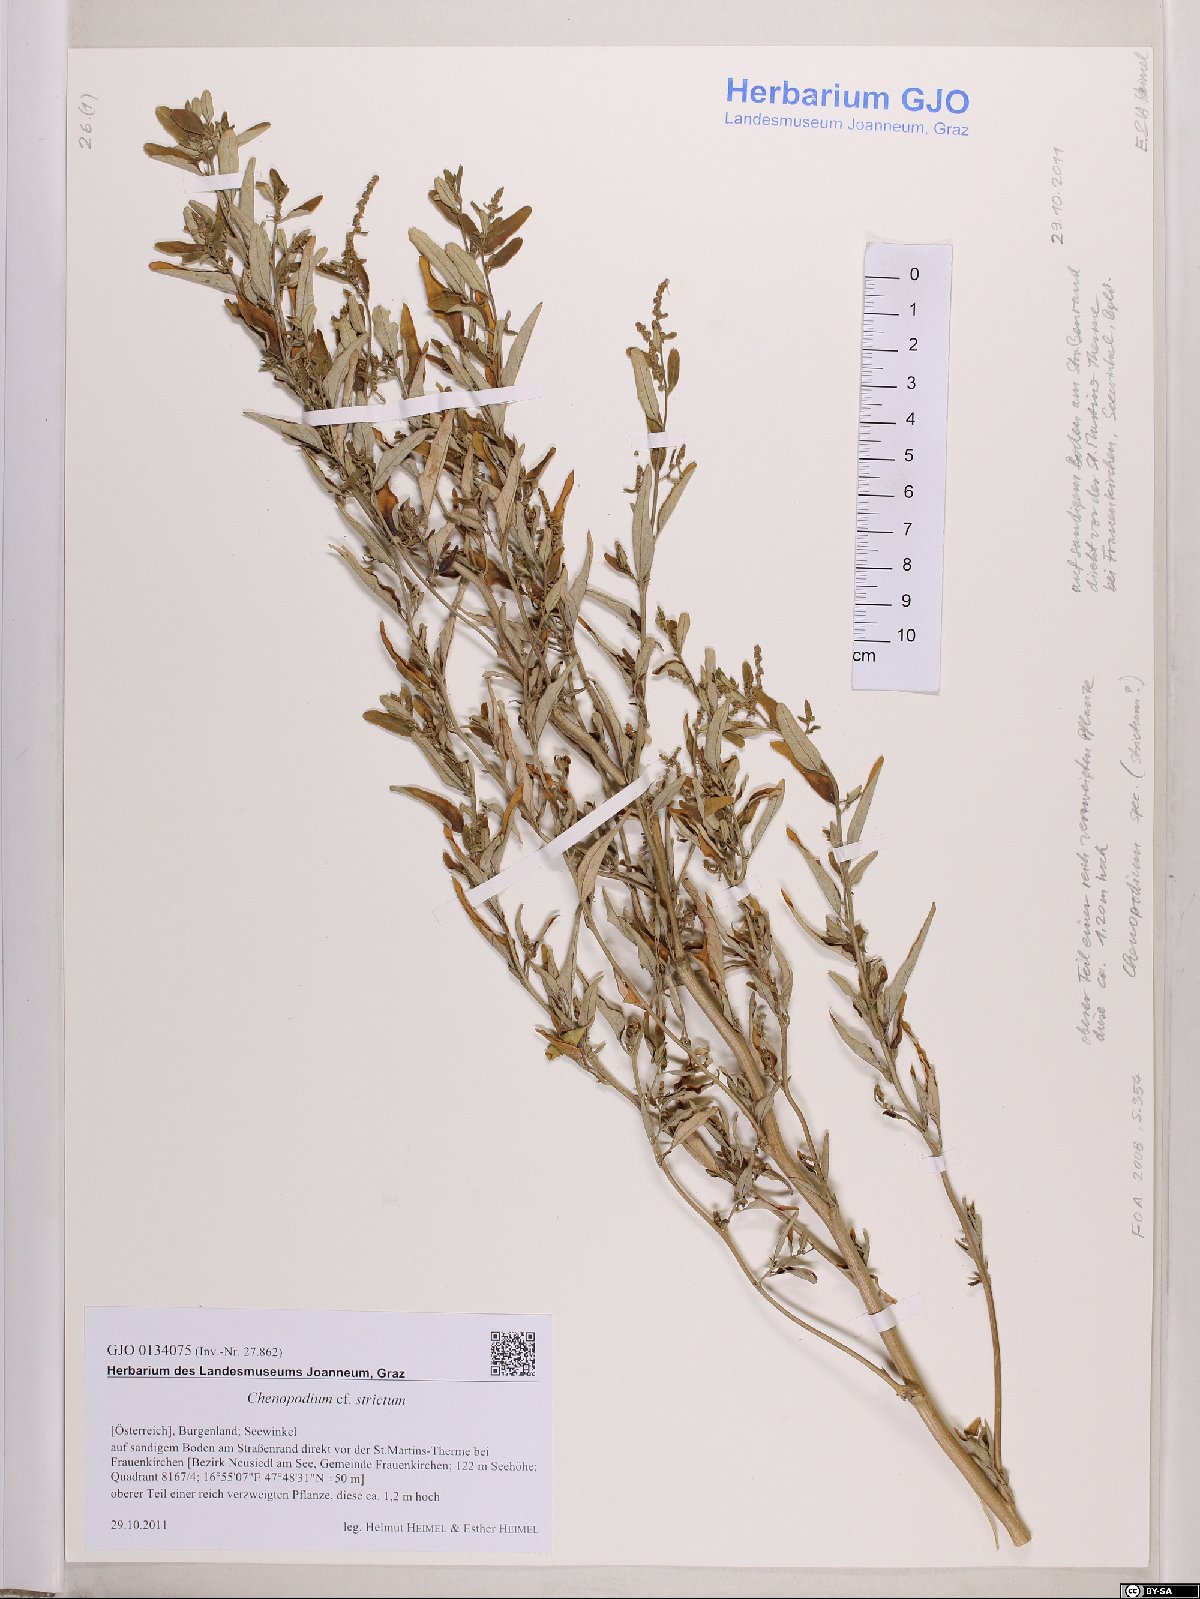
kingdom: Plantae
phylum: Tracheophyta
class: Magnoliopsida
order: Caryophyllales
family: Amaranthaceae
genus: Chenopodium
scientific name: Chenopodium album
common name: Fat-hen
